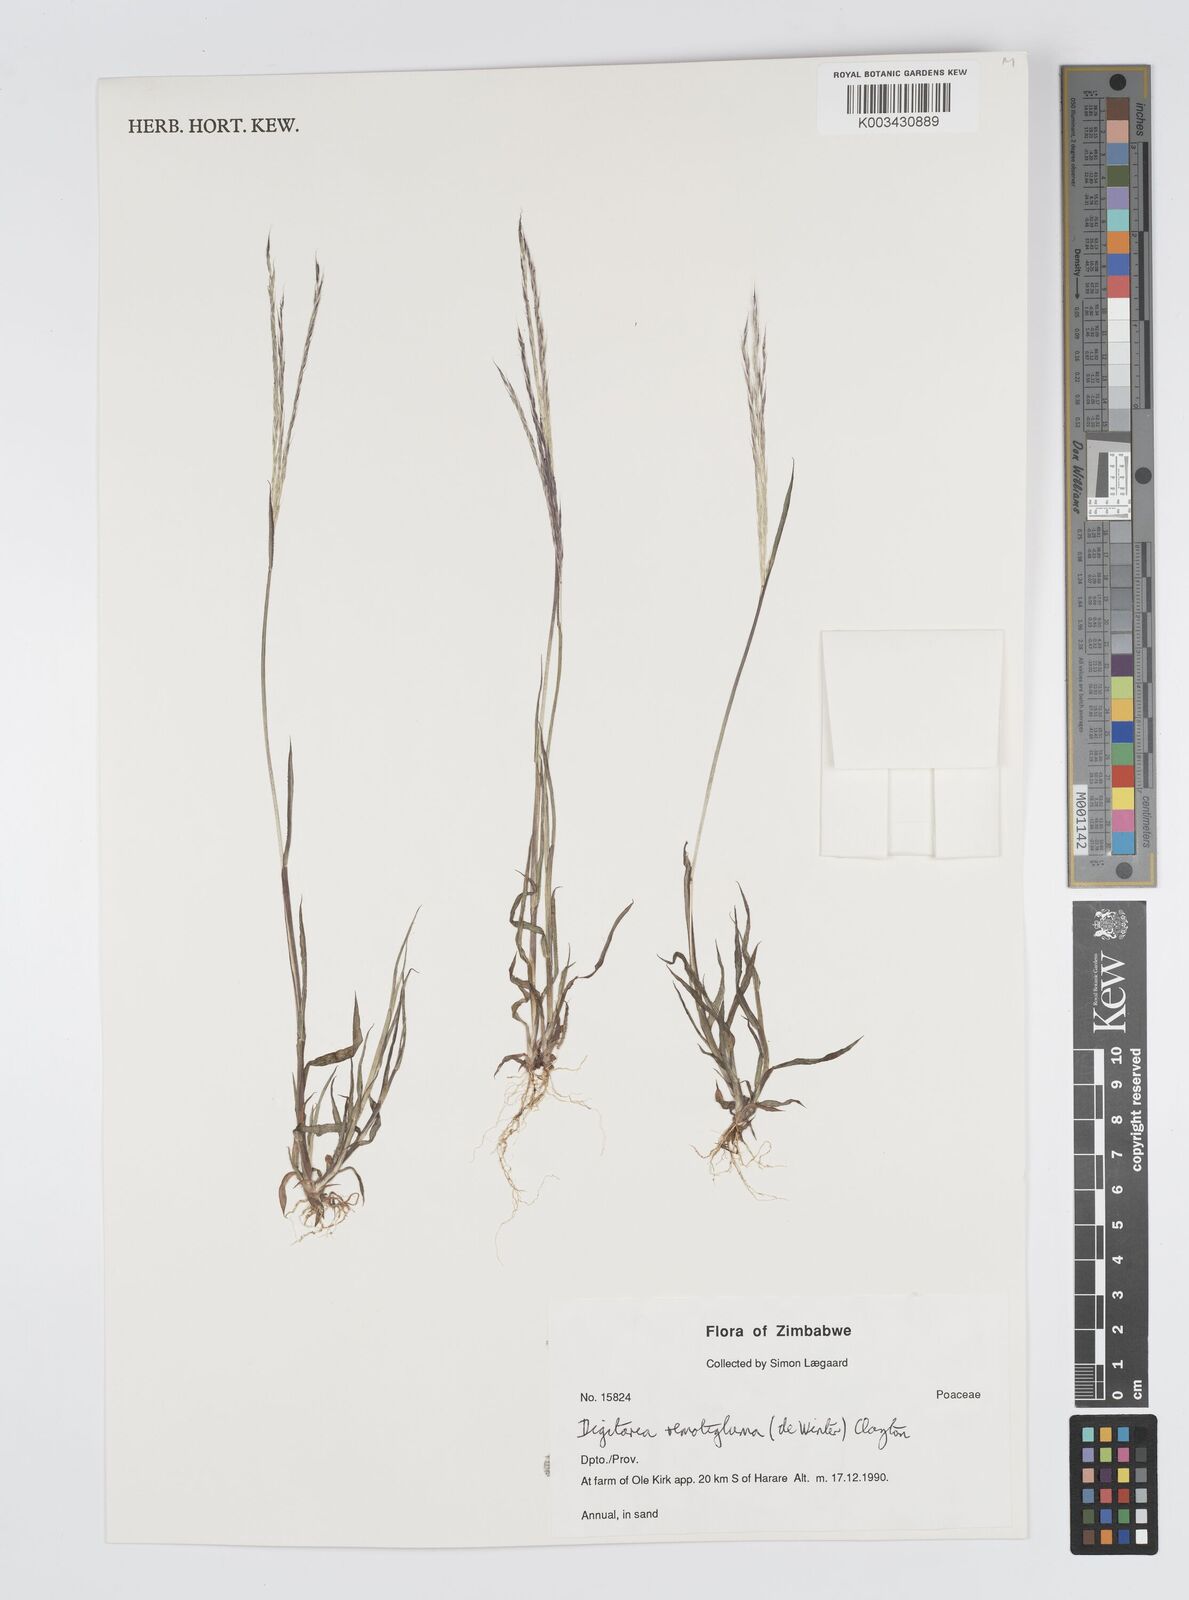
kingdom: Plantae
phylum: Tracheophyta
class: Liliopsida
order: Poales
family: Poaceae
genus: Digitaria
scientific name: Digitaria remotigluma
